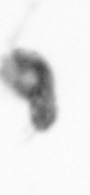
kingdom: Animalia
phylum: Arthropoda
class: Copepoda
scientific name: Copepoda
